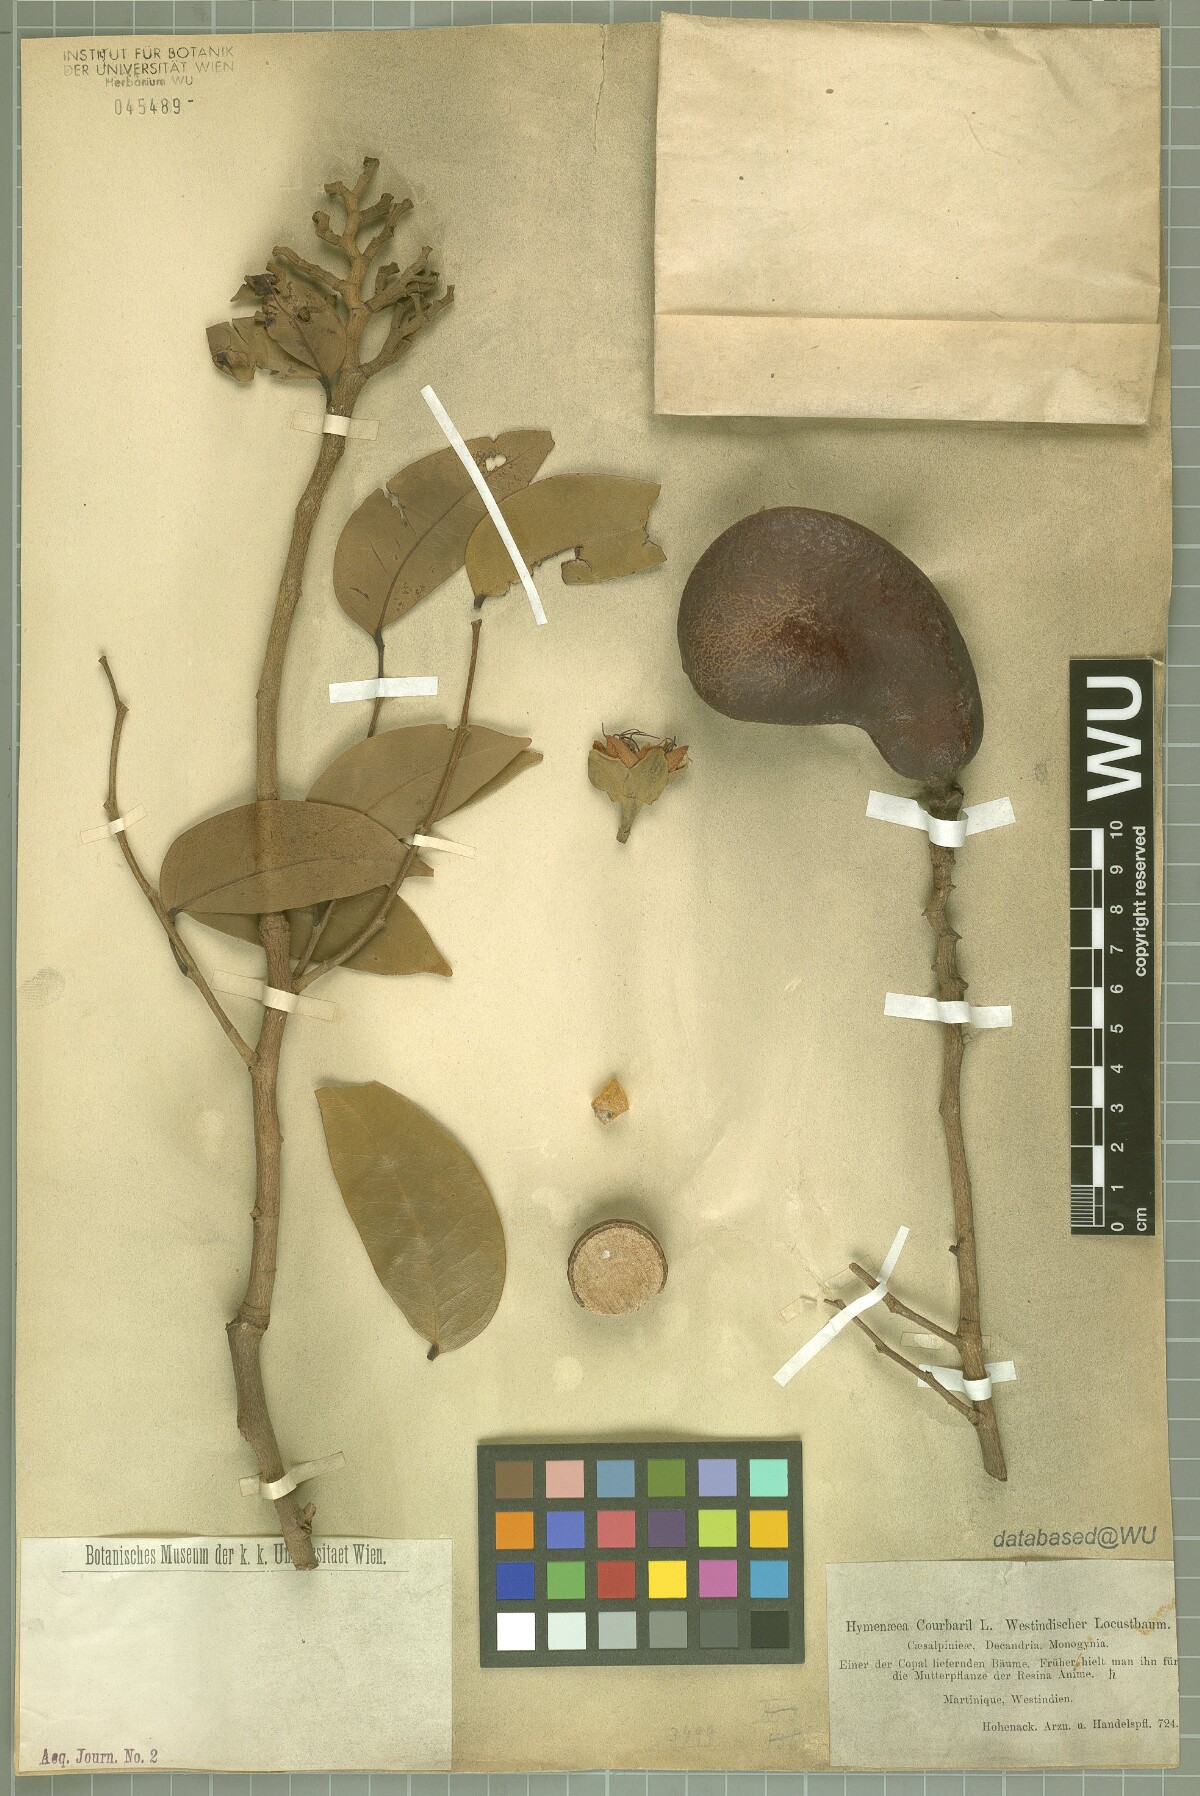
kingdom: Plantae
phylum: Tracheophyta
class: Magnoliopsida
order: Fabales
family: Fabaceae
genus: Hymenaea
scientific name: Hymenaea courbaril
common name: Brazilian copal
